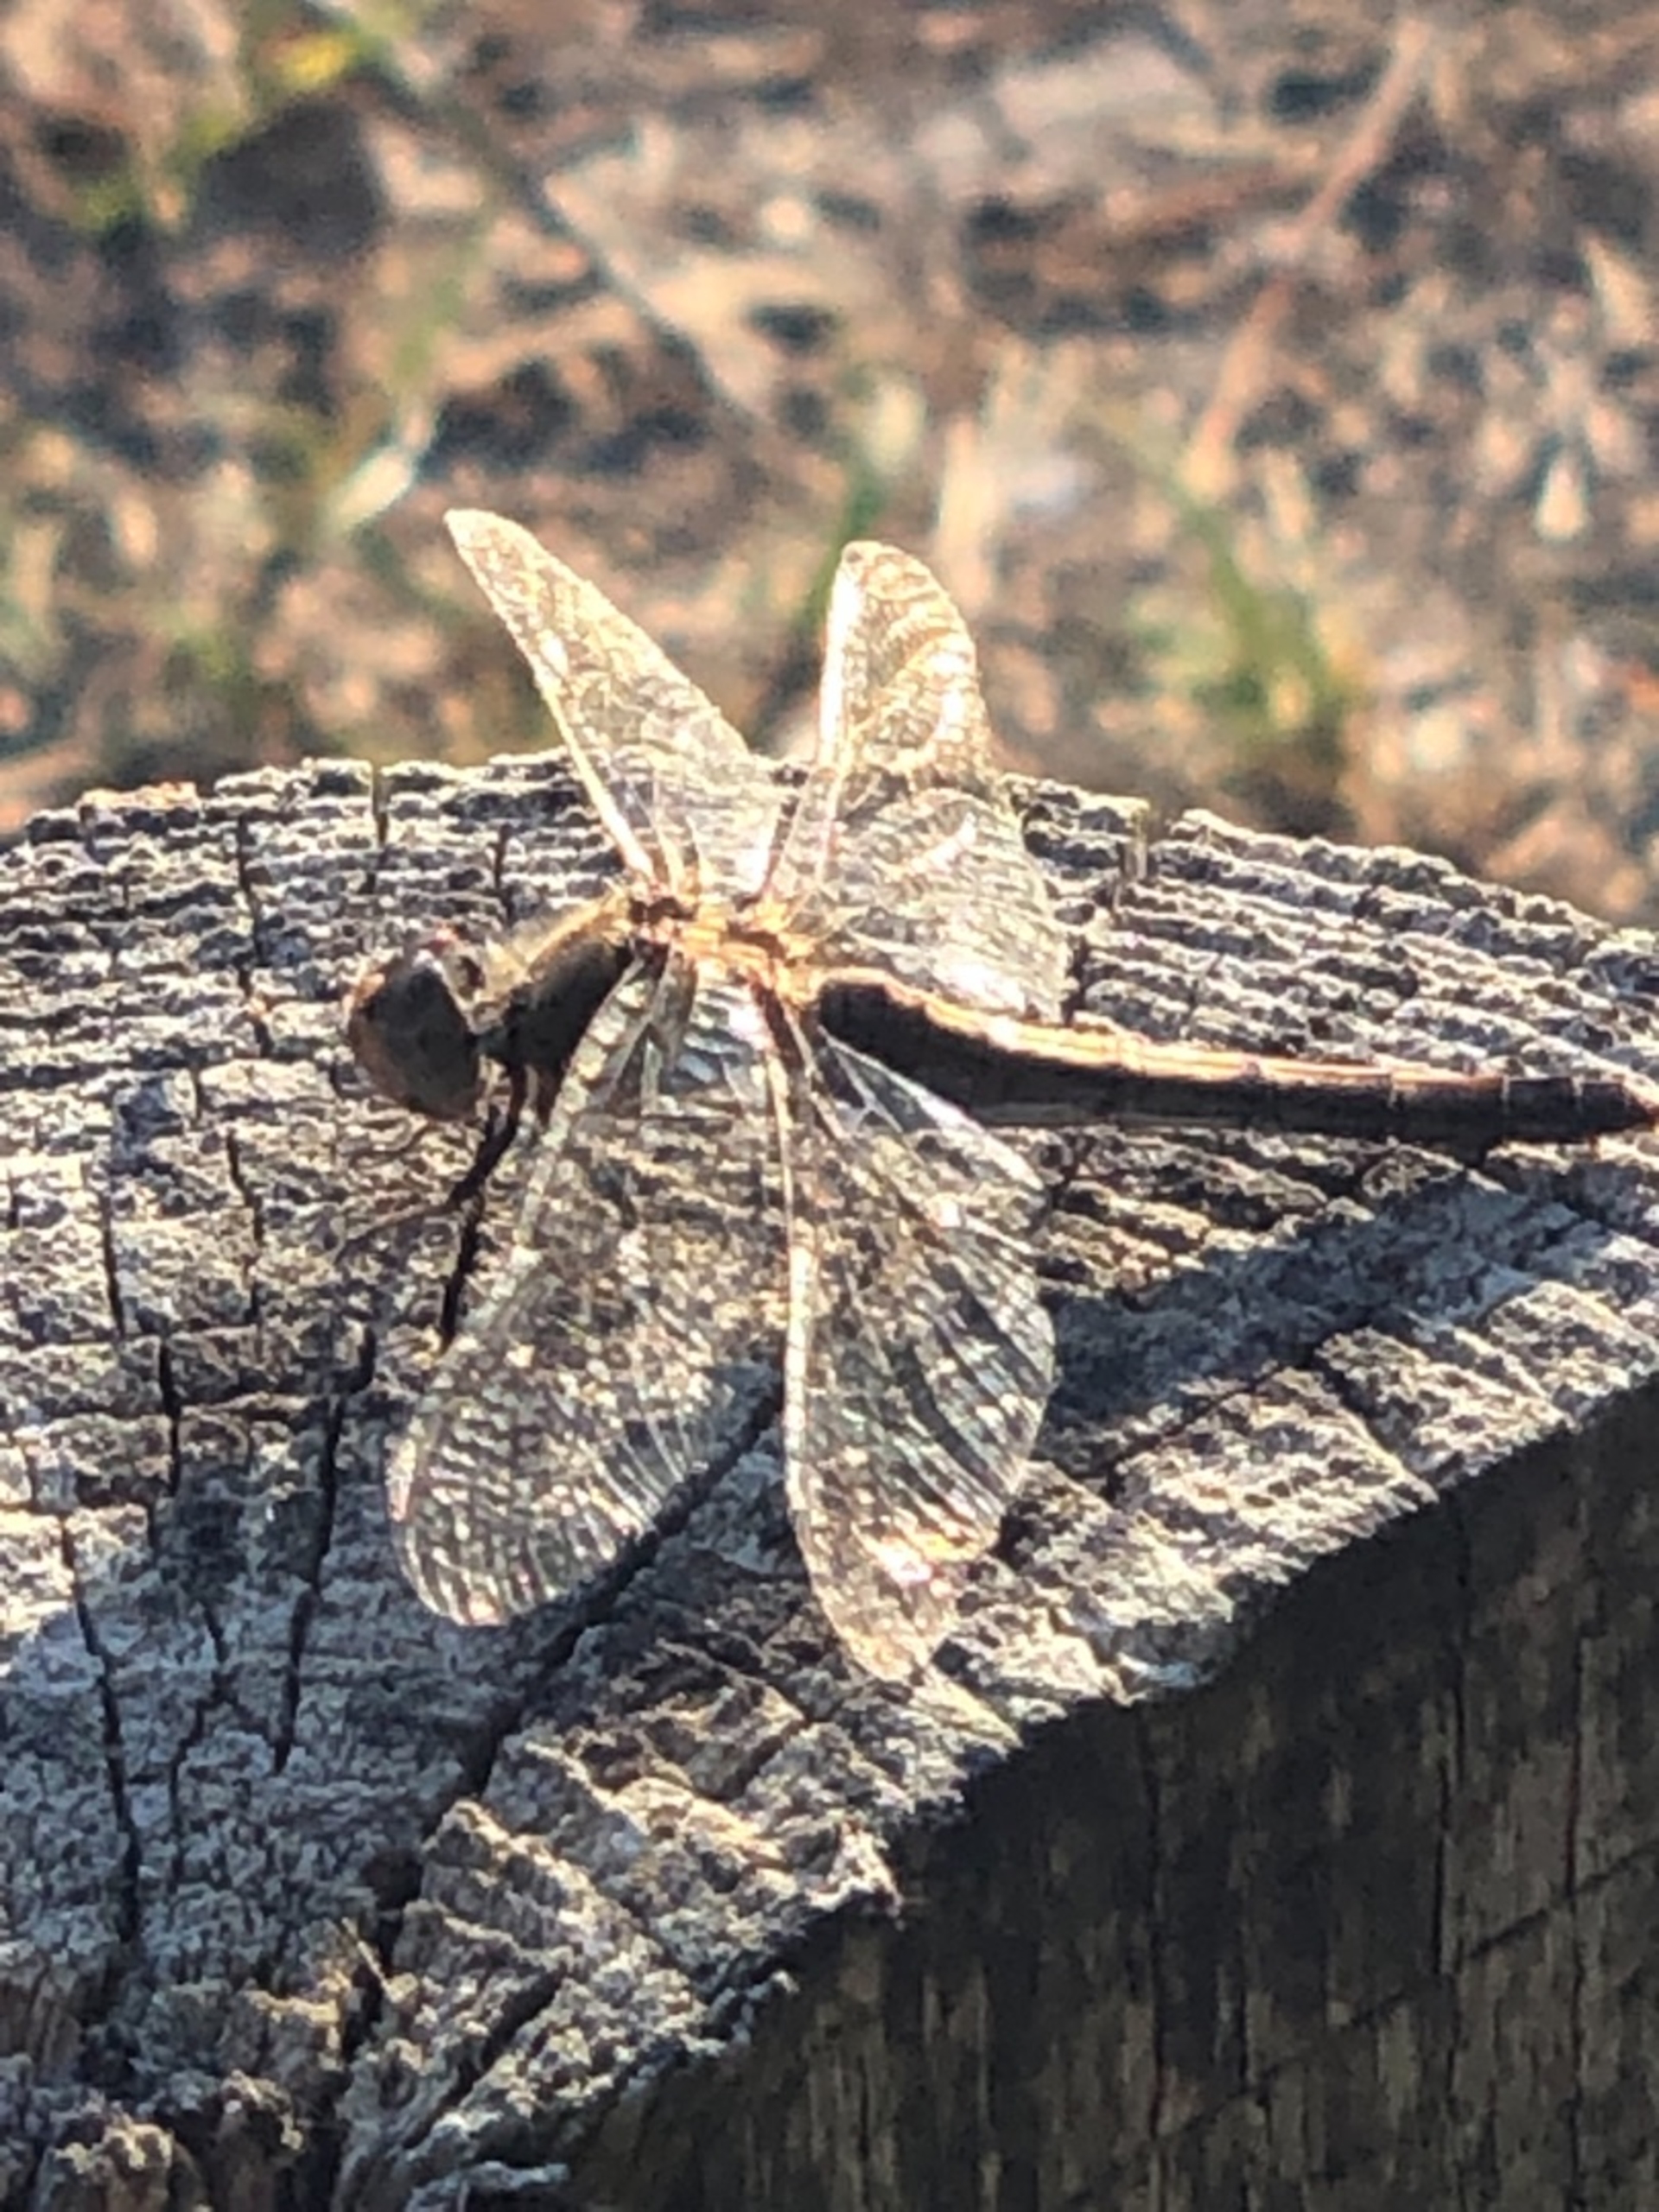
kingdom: Animalia
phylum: Arthropoda
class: Insecta
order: Odonata
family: Libellulidae
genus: Sympetrum
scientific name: Sympetrum
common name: Hedelibeller
